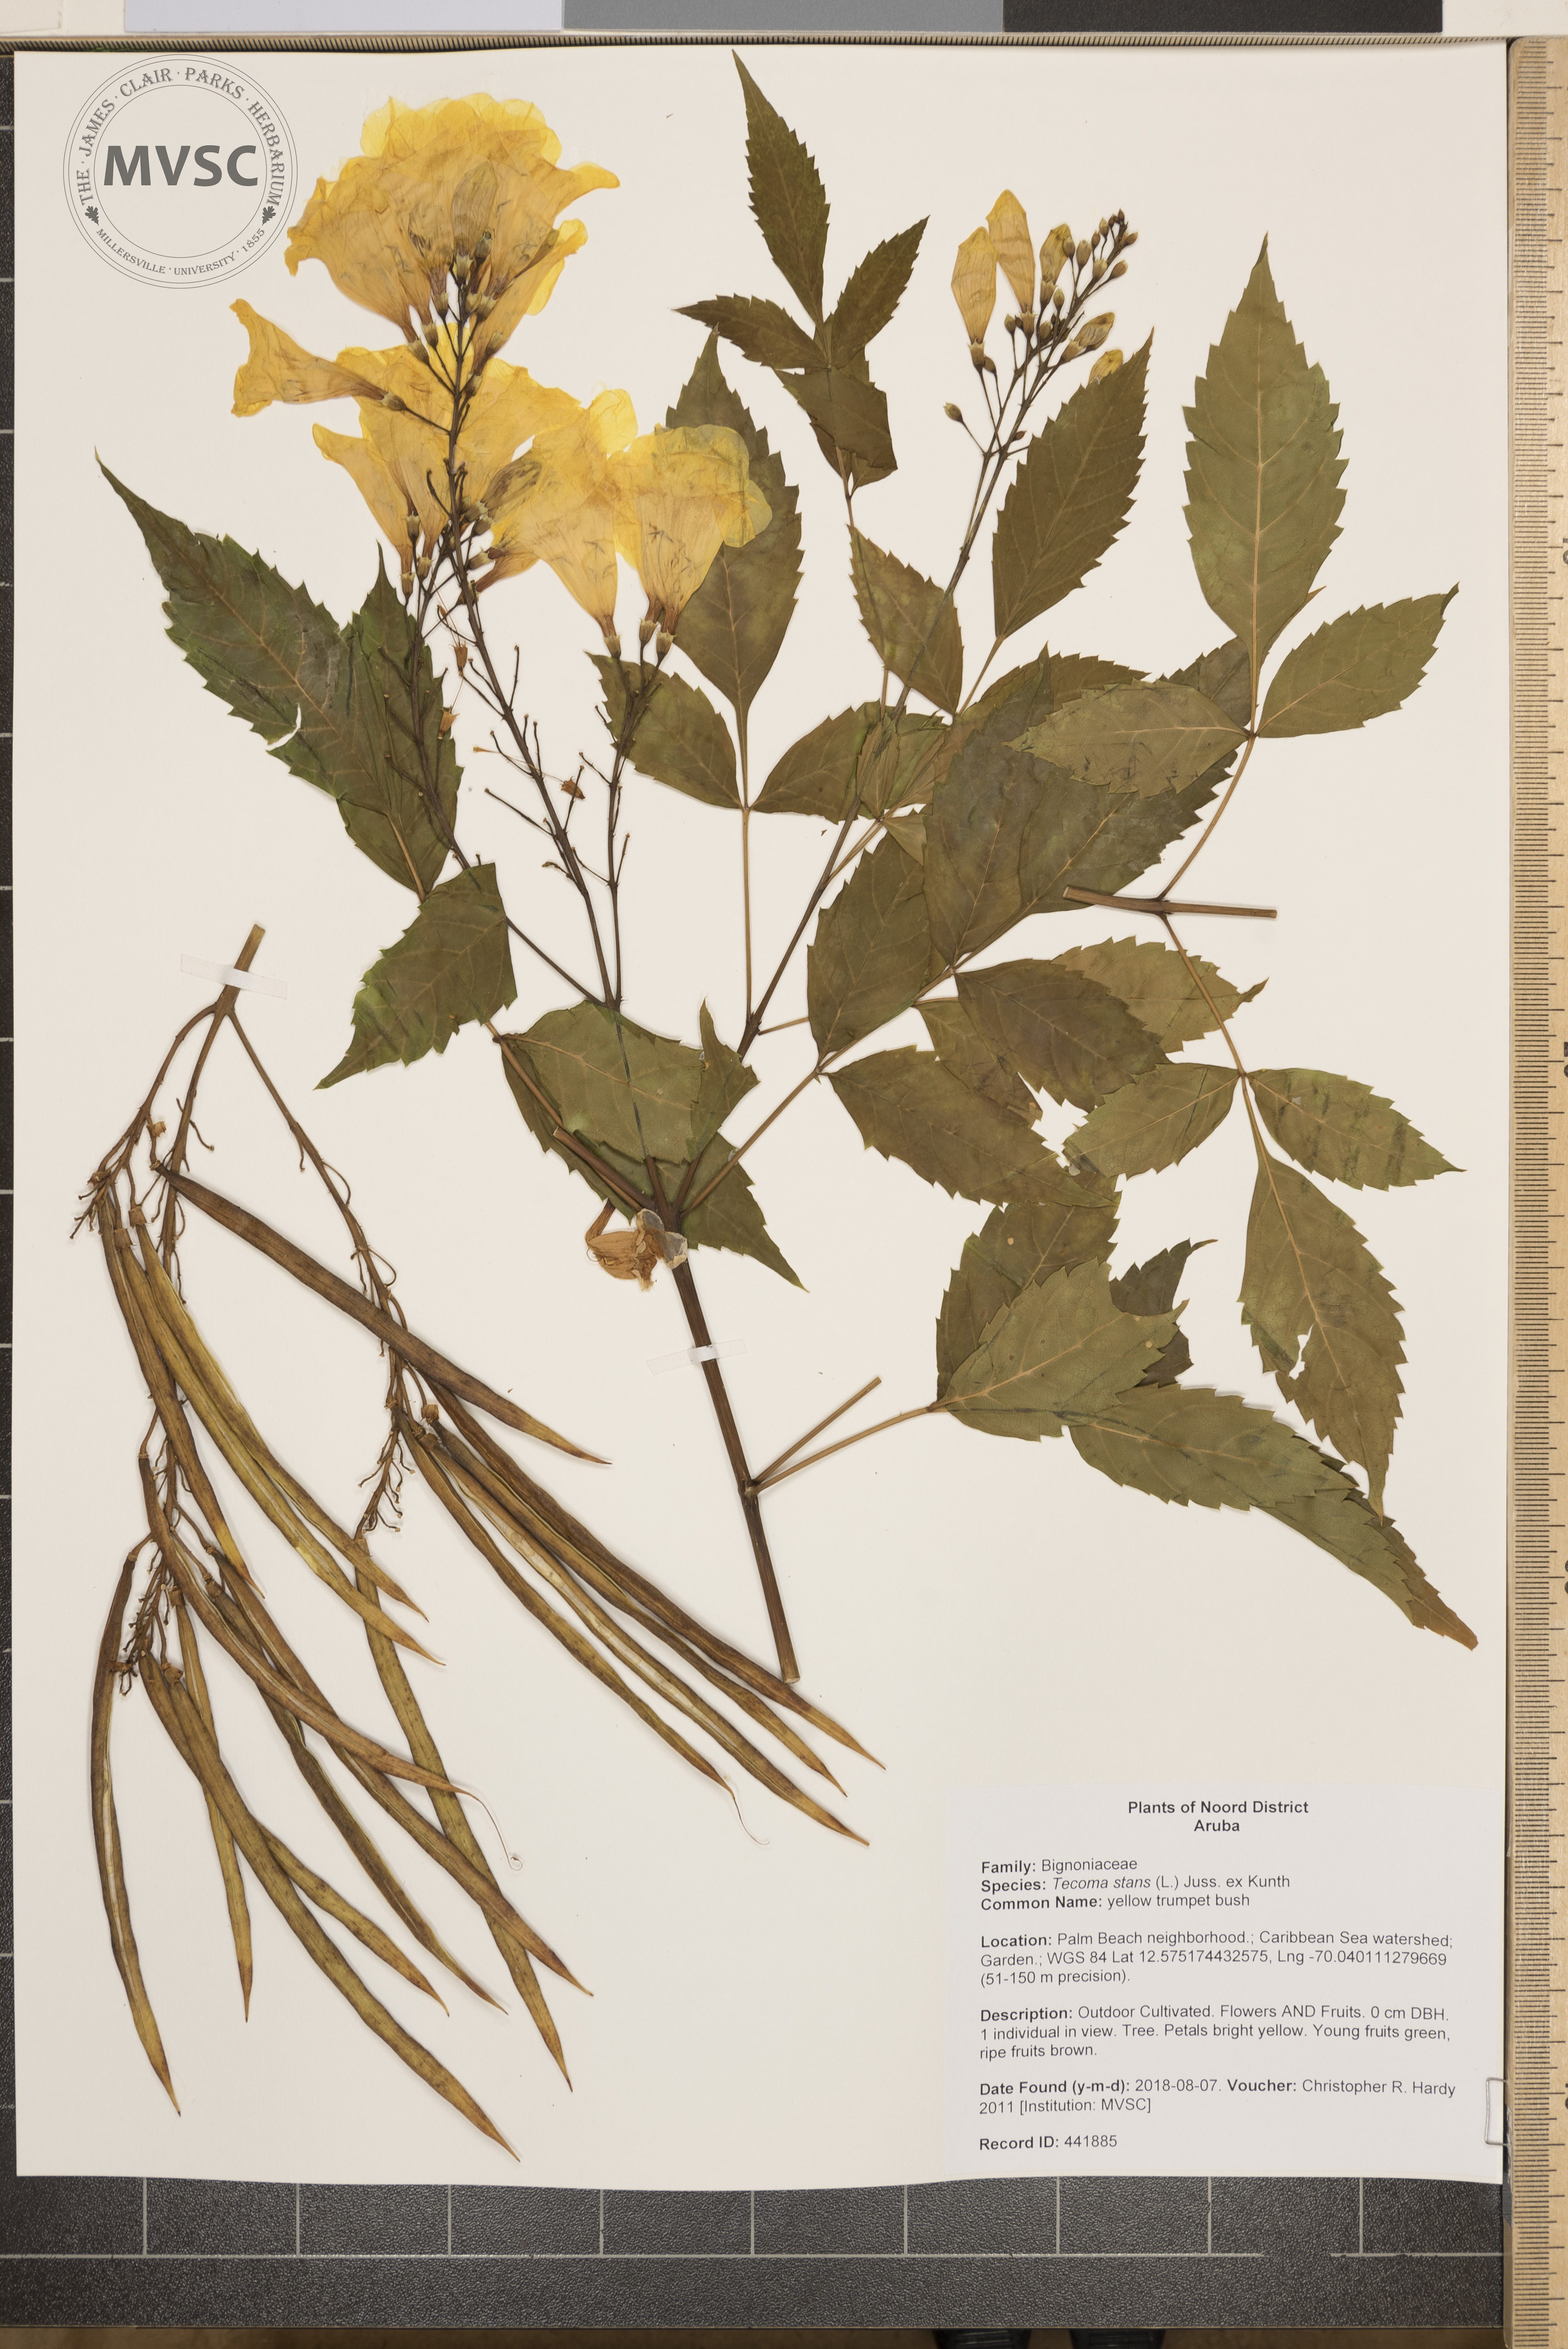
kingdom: Plantae
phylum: Tracheophyta
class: Magnoliopsida
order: Lamiales
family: Bignoniaceae
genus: Tecoma
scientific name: Tecoma stans
